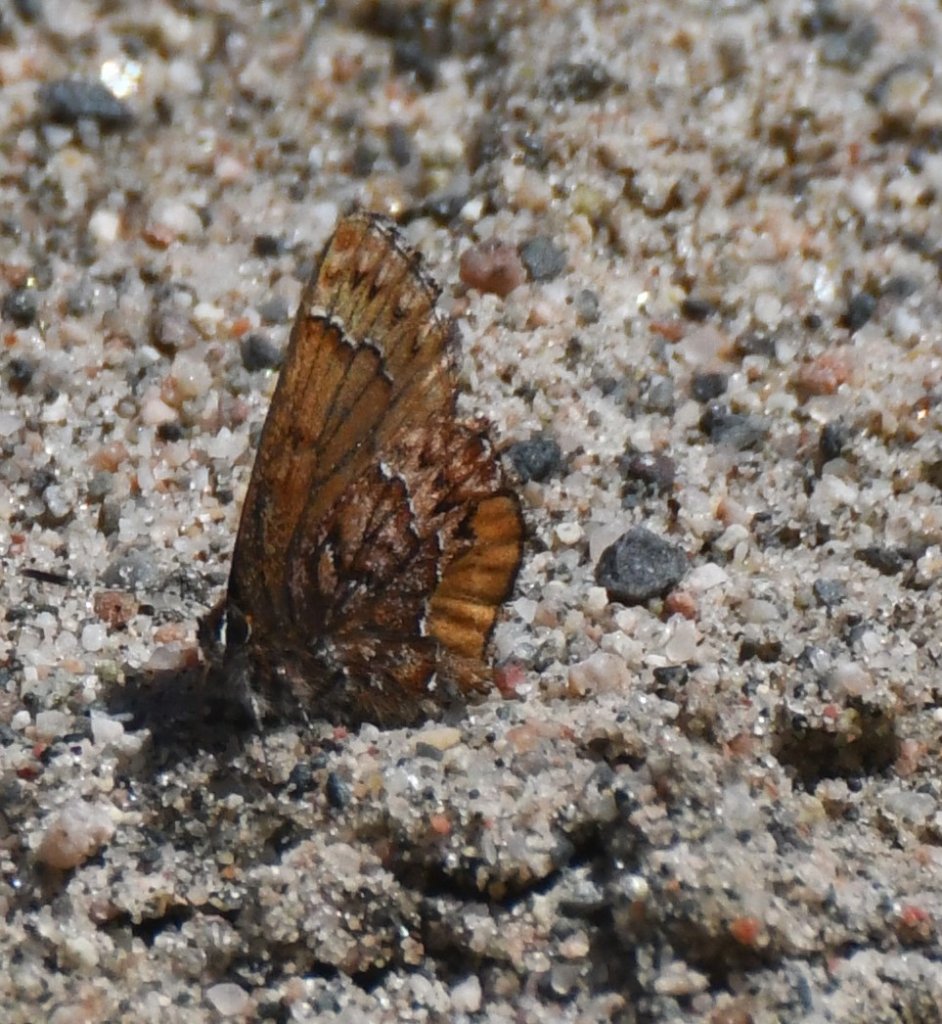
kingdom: Animalia
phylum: Arthropoda
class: Insecta
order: Lepidoptera
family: Lycaenidae
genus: Incisalia
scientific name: Incisalia eryphon
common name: Western Pine Elfin
